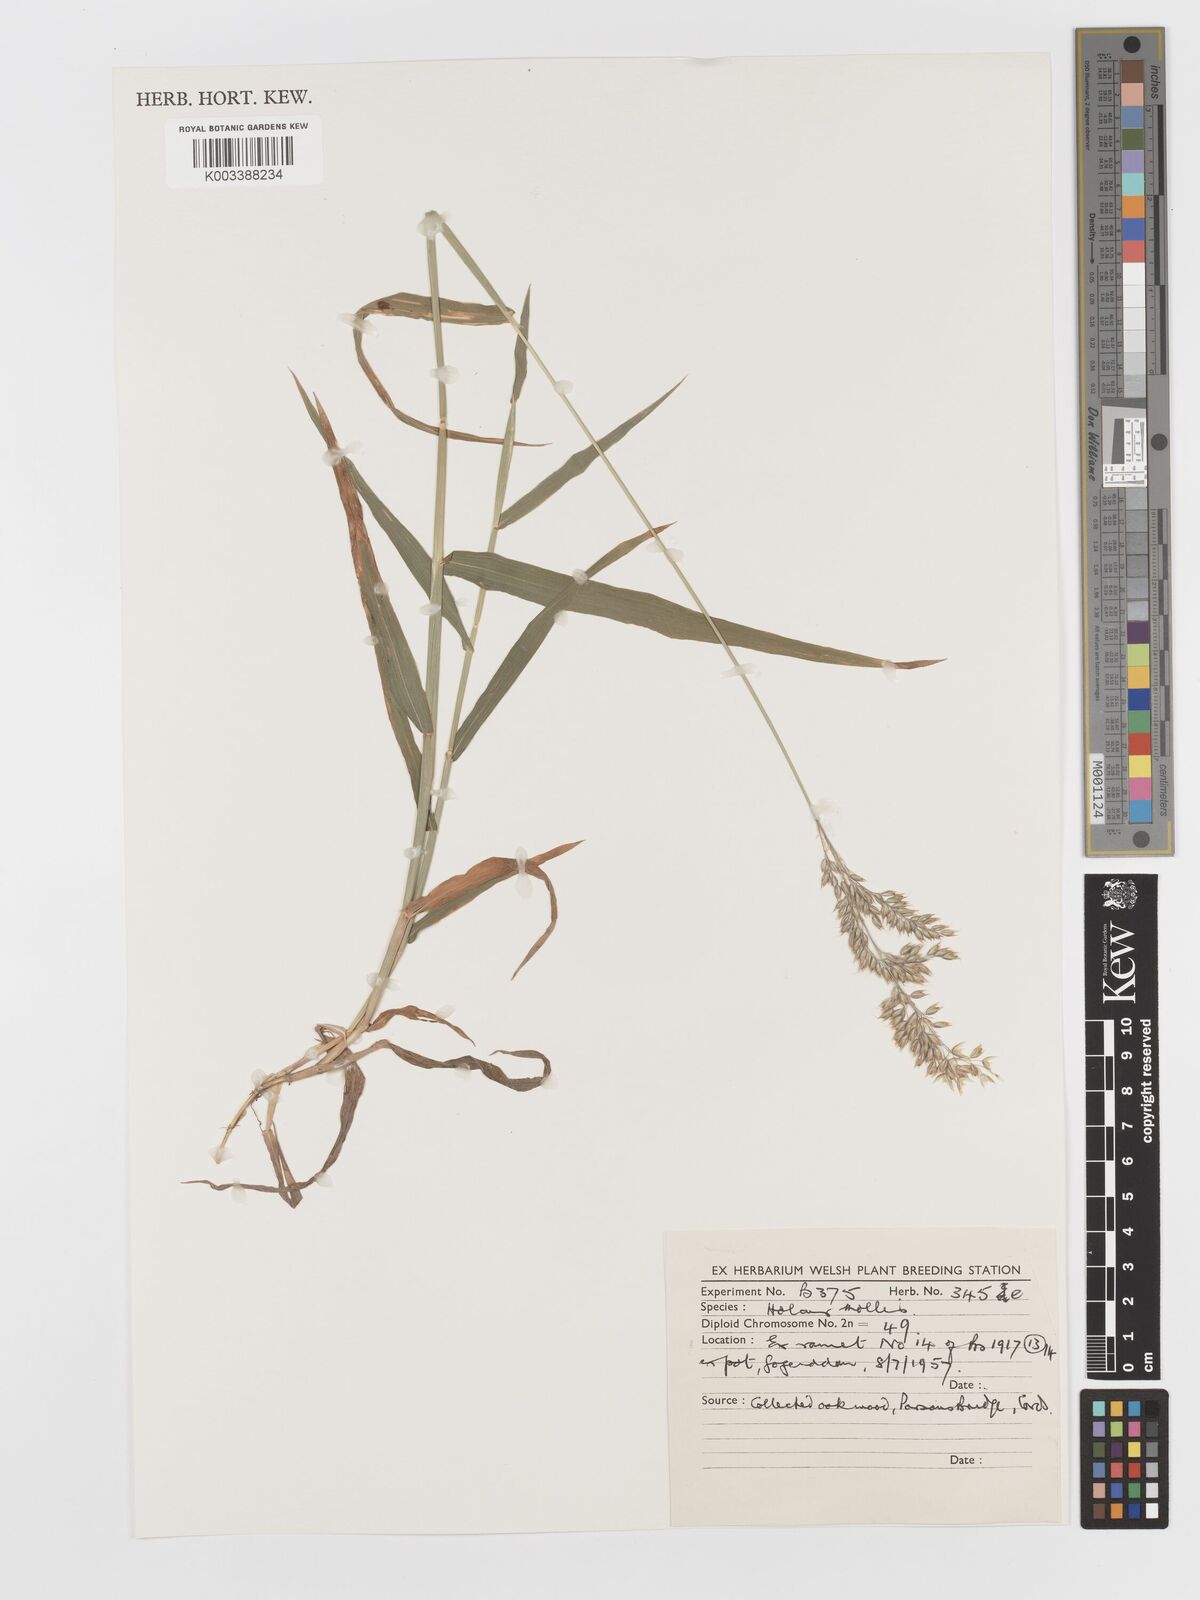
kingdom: Plantae
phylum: Tracheophyta
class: Liliopsida
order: Poales
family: Poaceae
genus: Holcus
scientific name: Holcus hierrensis
